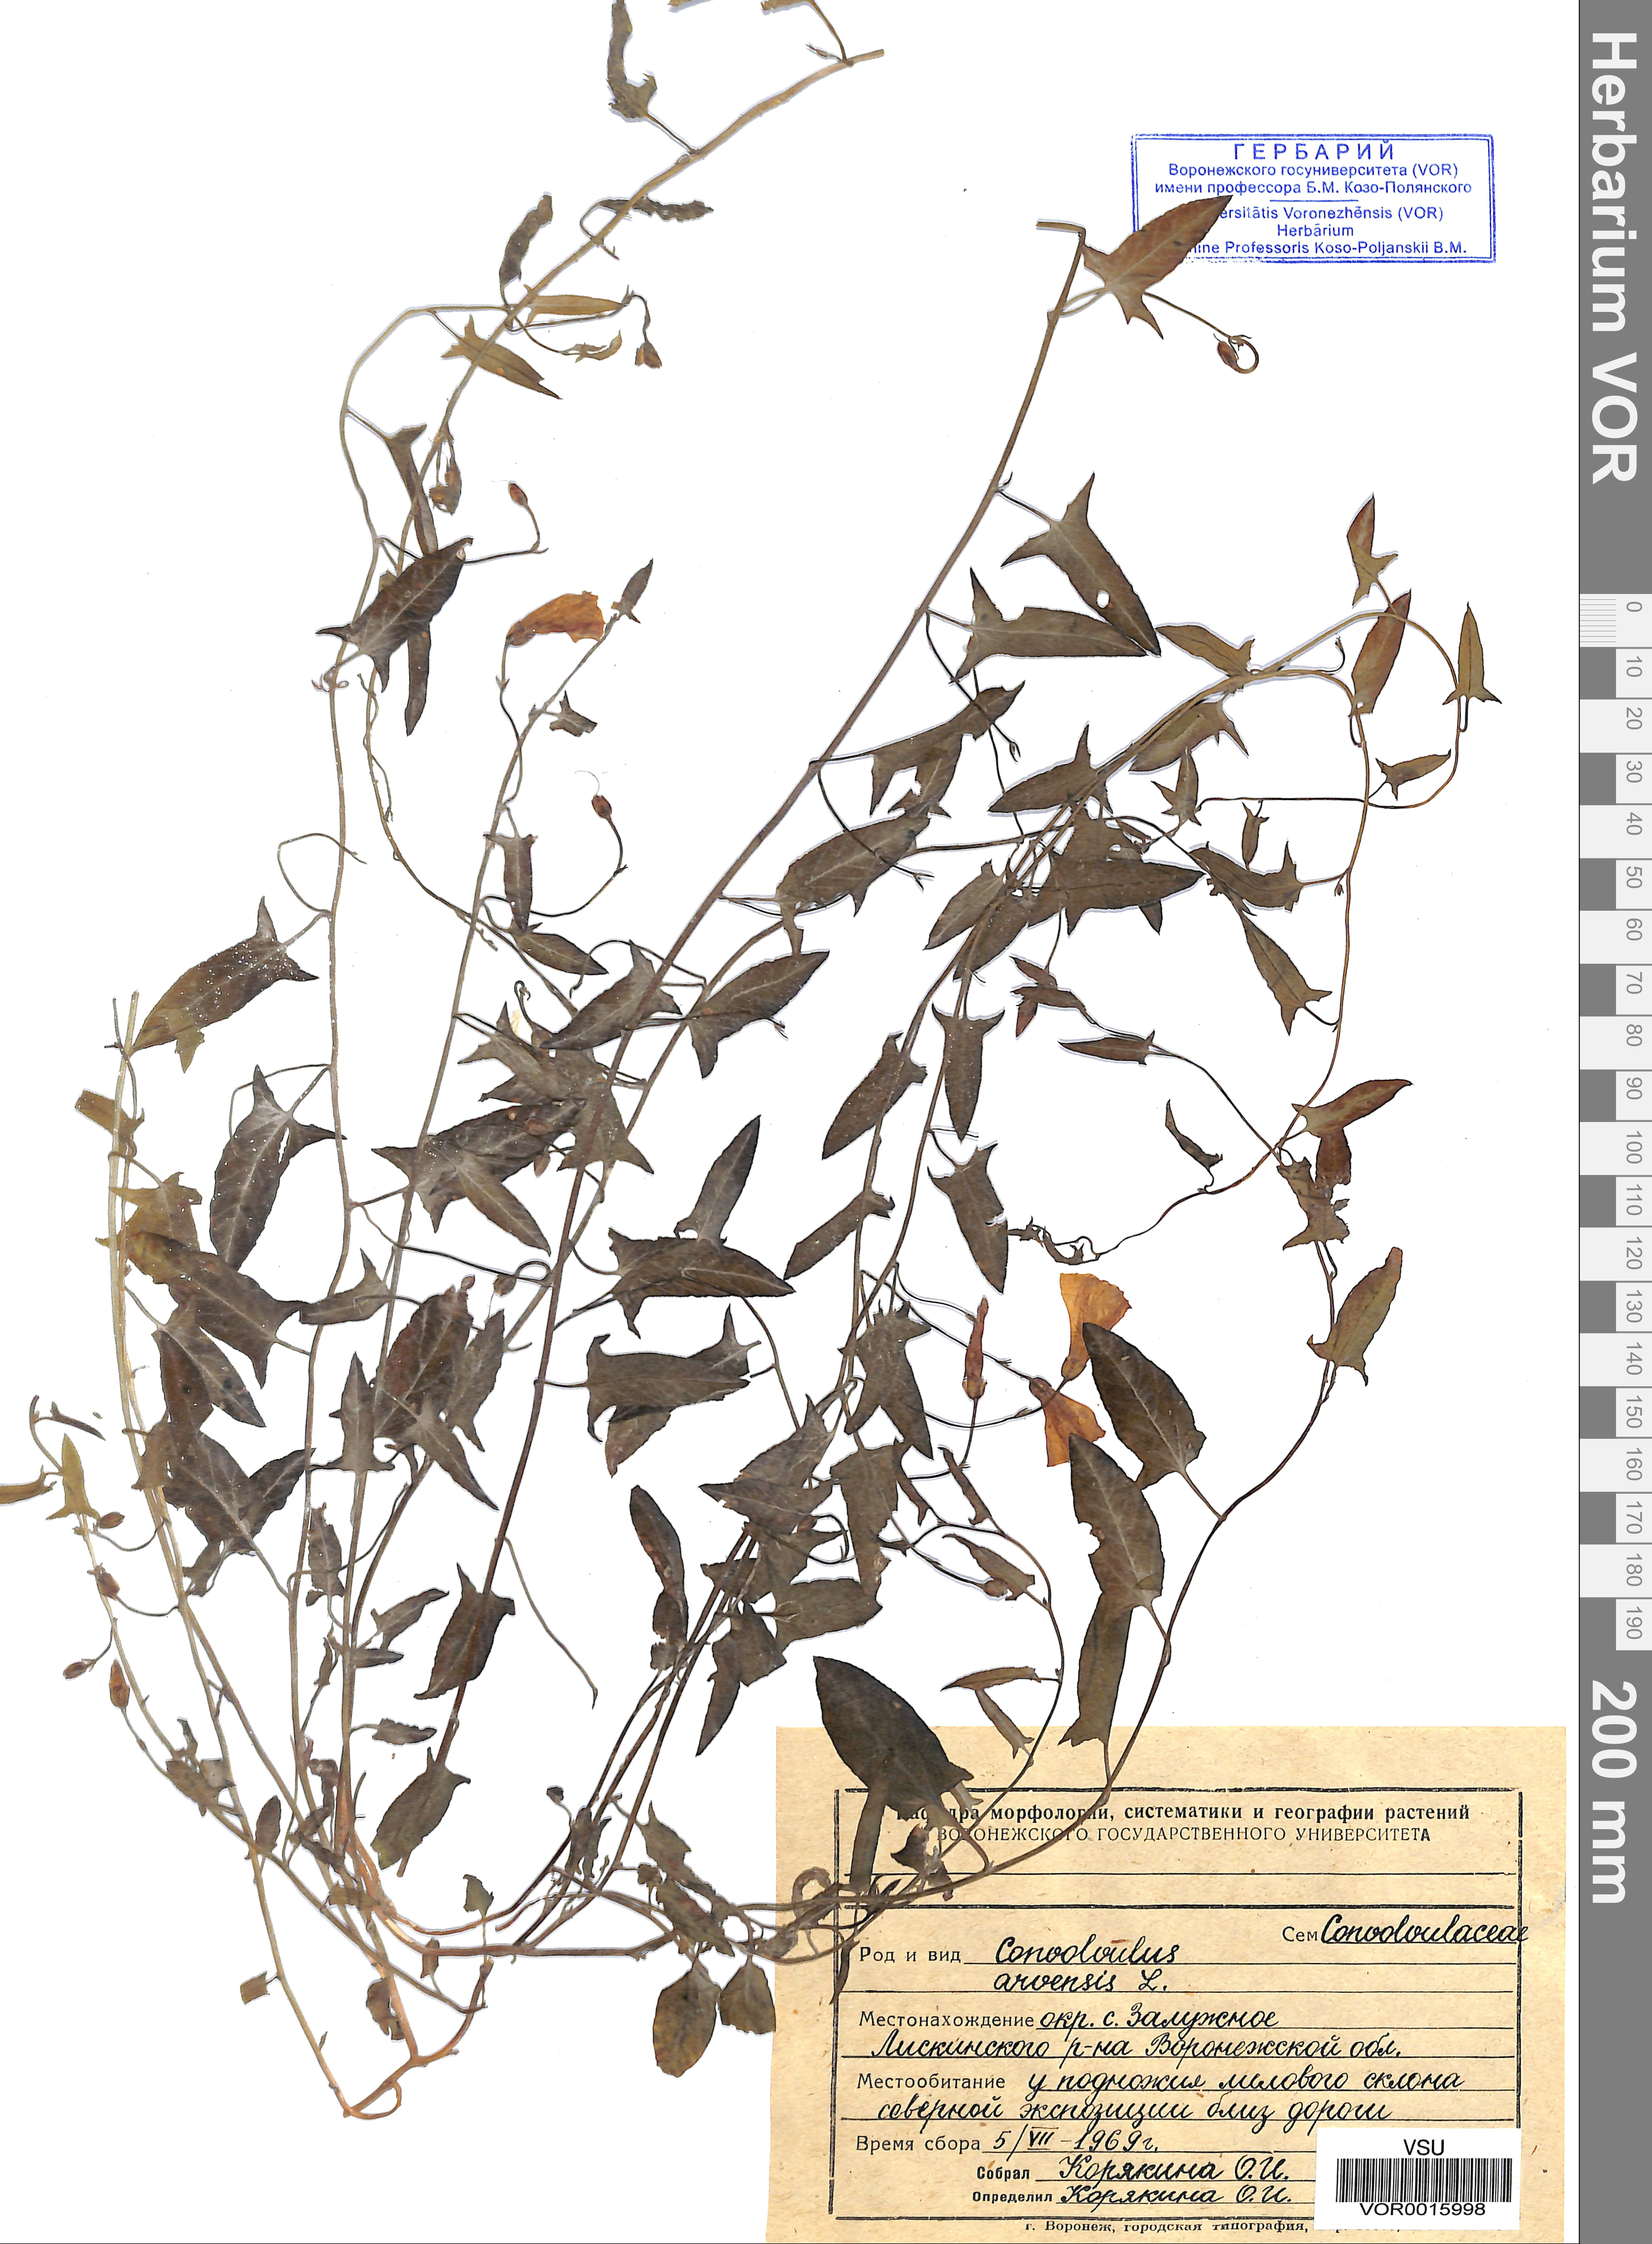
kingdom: Plantae
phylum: Tracheophyta
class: Magnoliopsida
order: Solanales
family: Convolvulaceae
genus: Convolvulus
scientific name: Convolvulus arvensis
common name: Field bindweed
